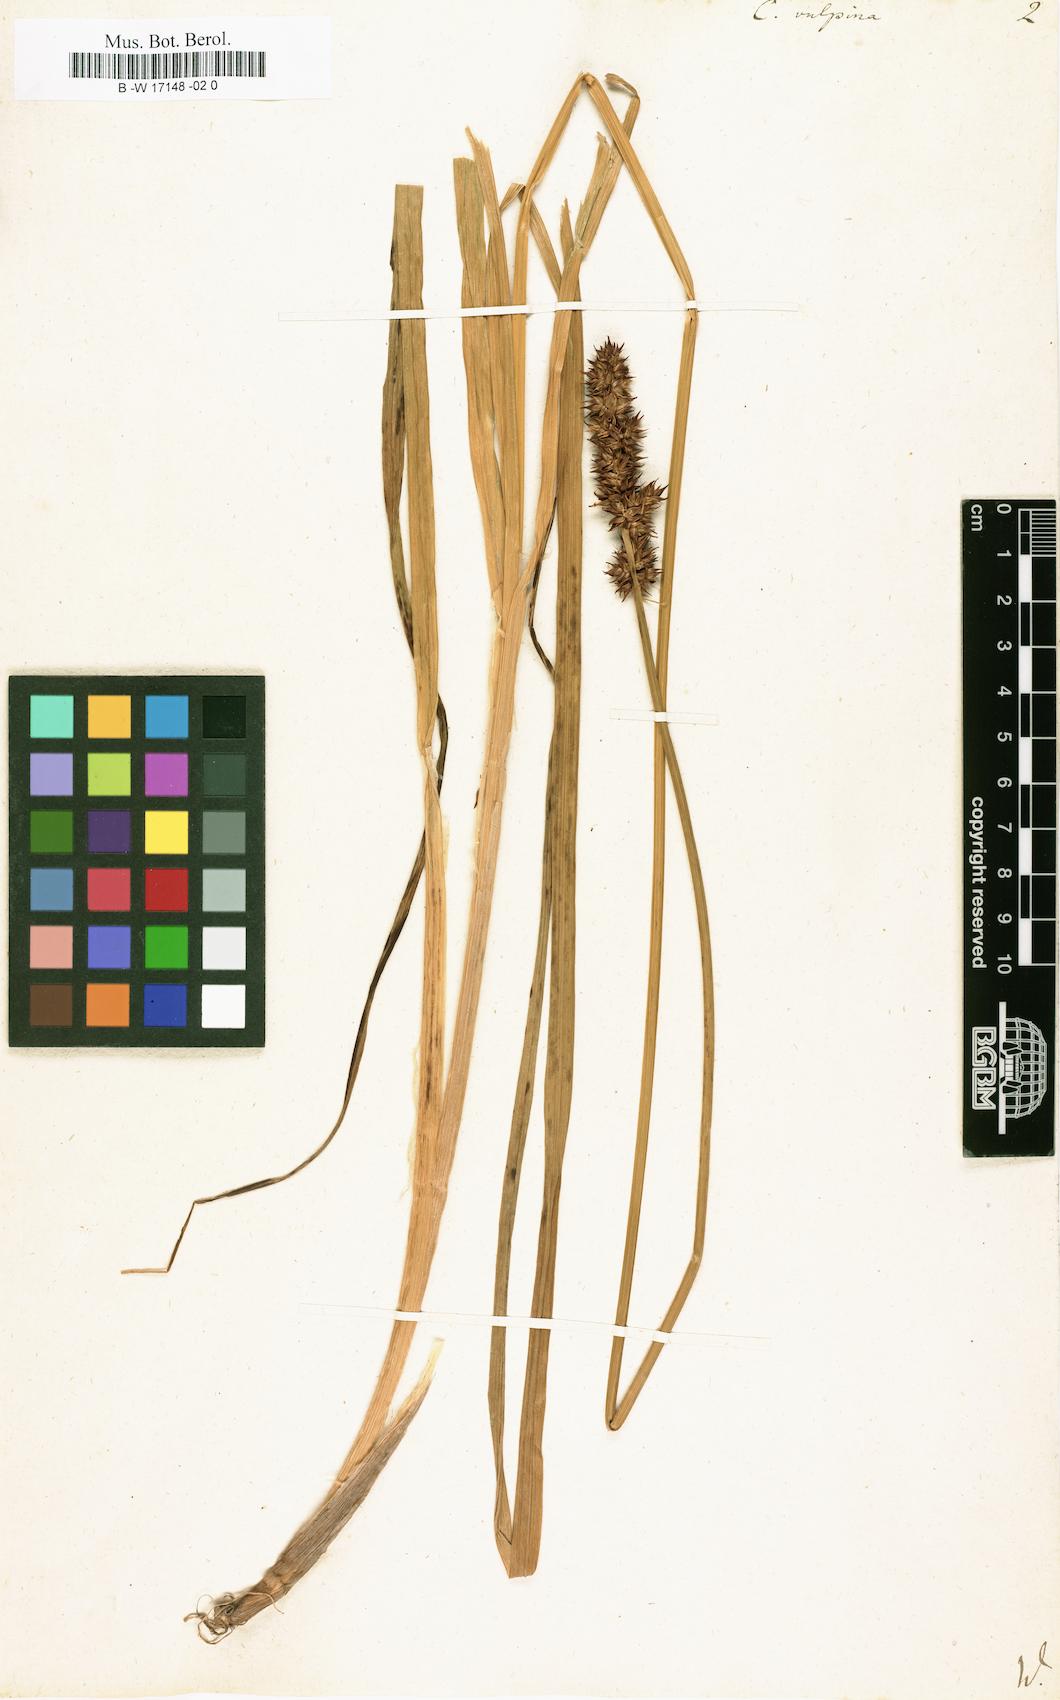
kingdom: Plantae
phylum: Tracheophyta
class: Liliopsida
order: Poales
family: Cyperaceae
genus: Carex
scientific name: Carex vulpina
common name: True fox-sedge
